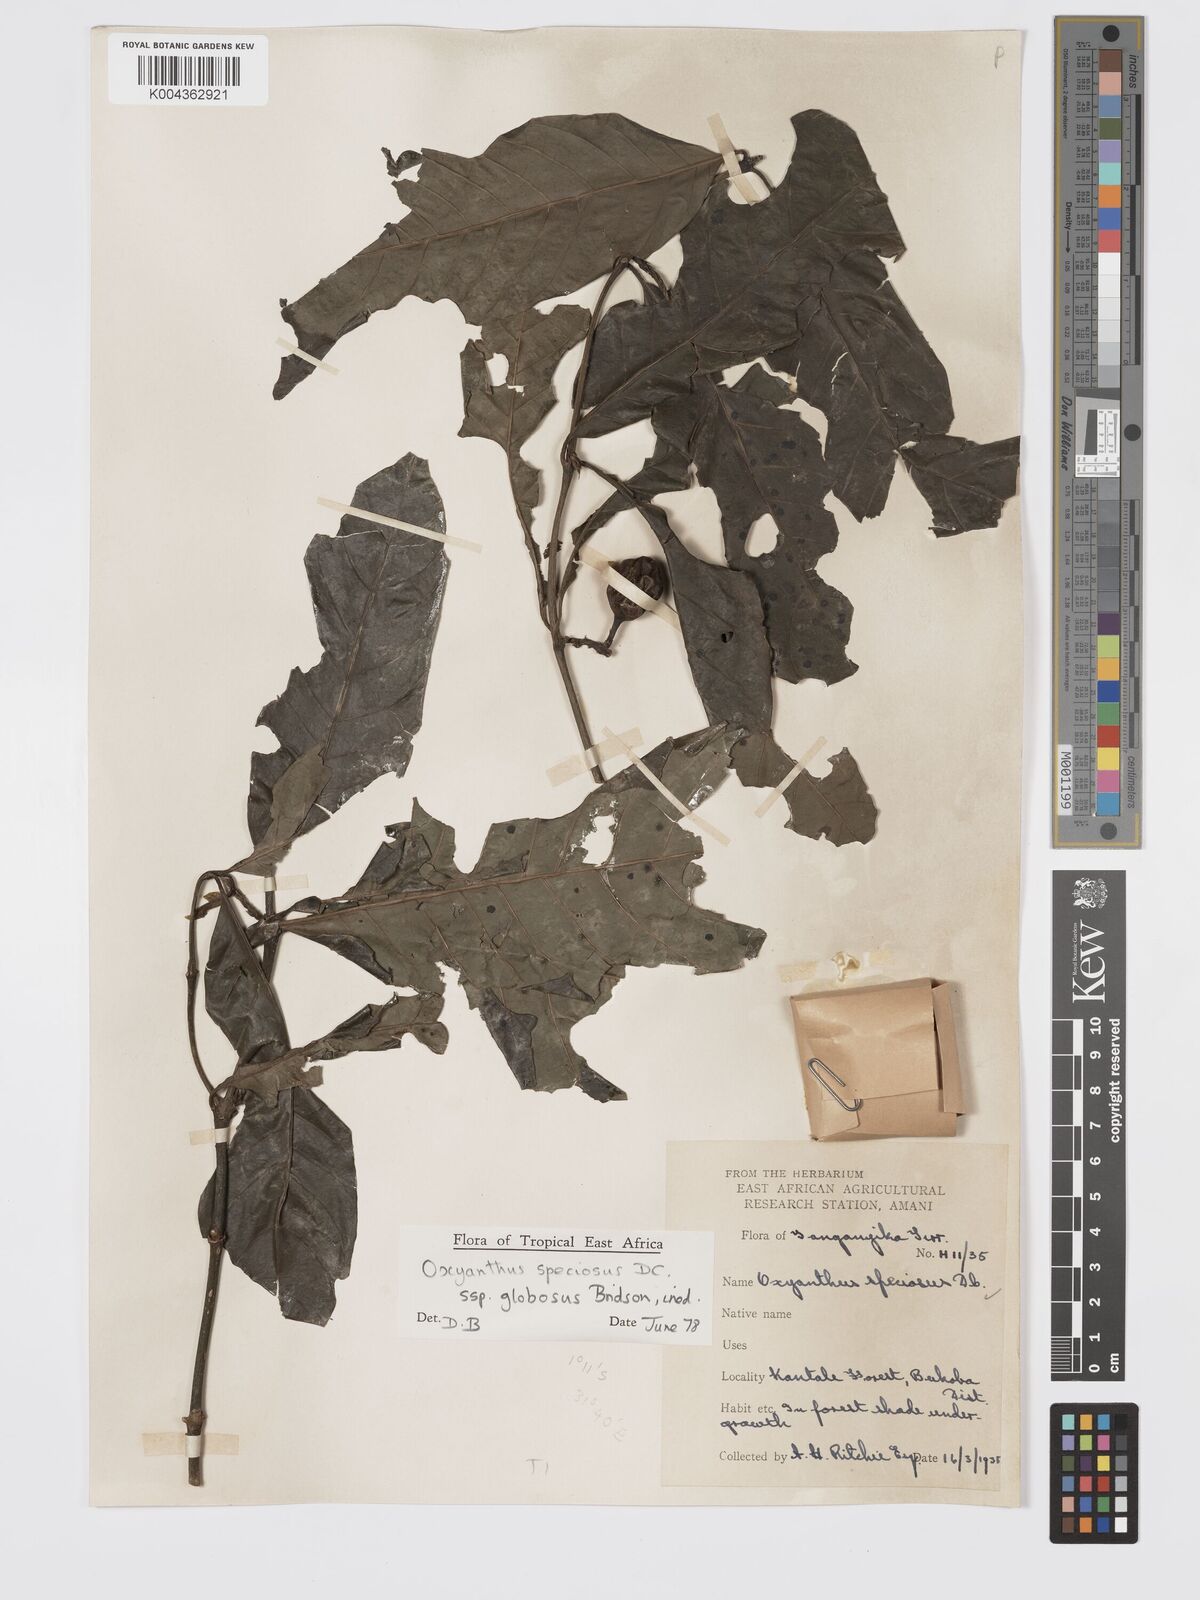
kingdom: Plantae
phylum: Tracheophyta
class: Magnoliopsida
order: Gentianales
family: Rubiaceae
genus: Oxyanthus
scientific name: Oxyanthus speciosus
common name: Whipstick loquat
